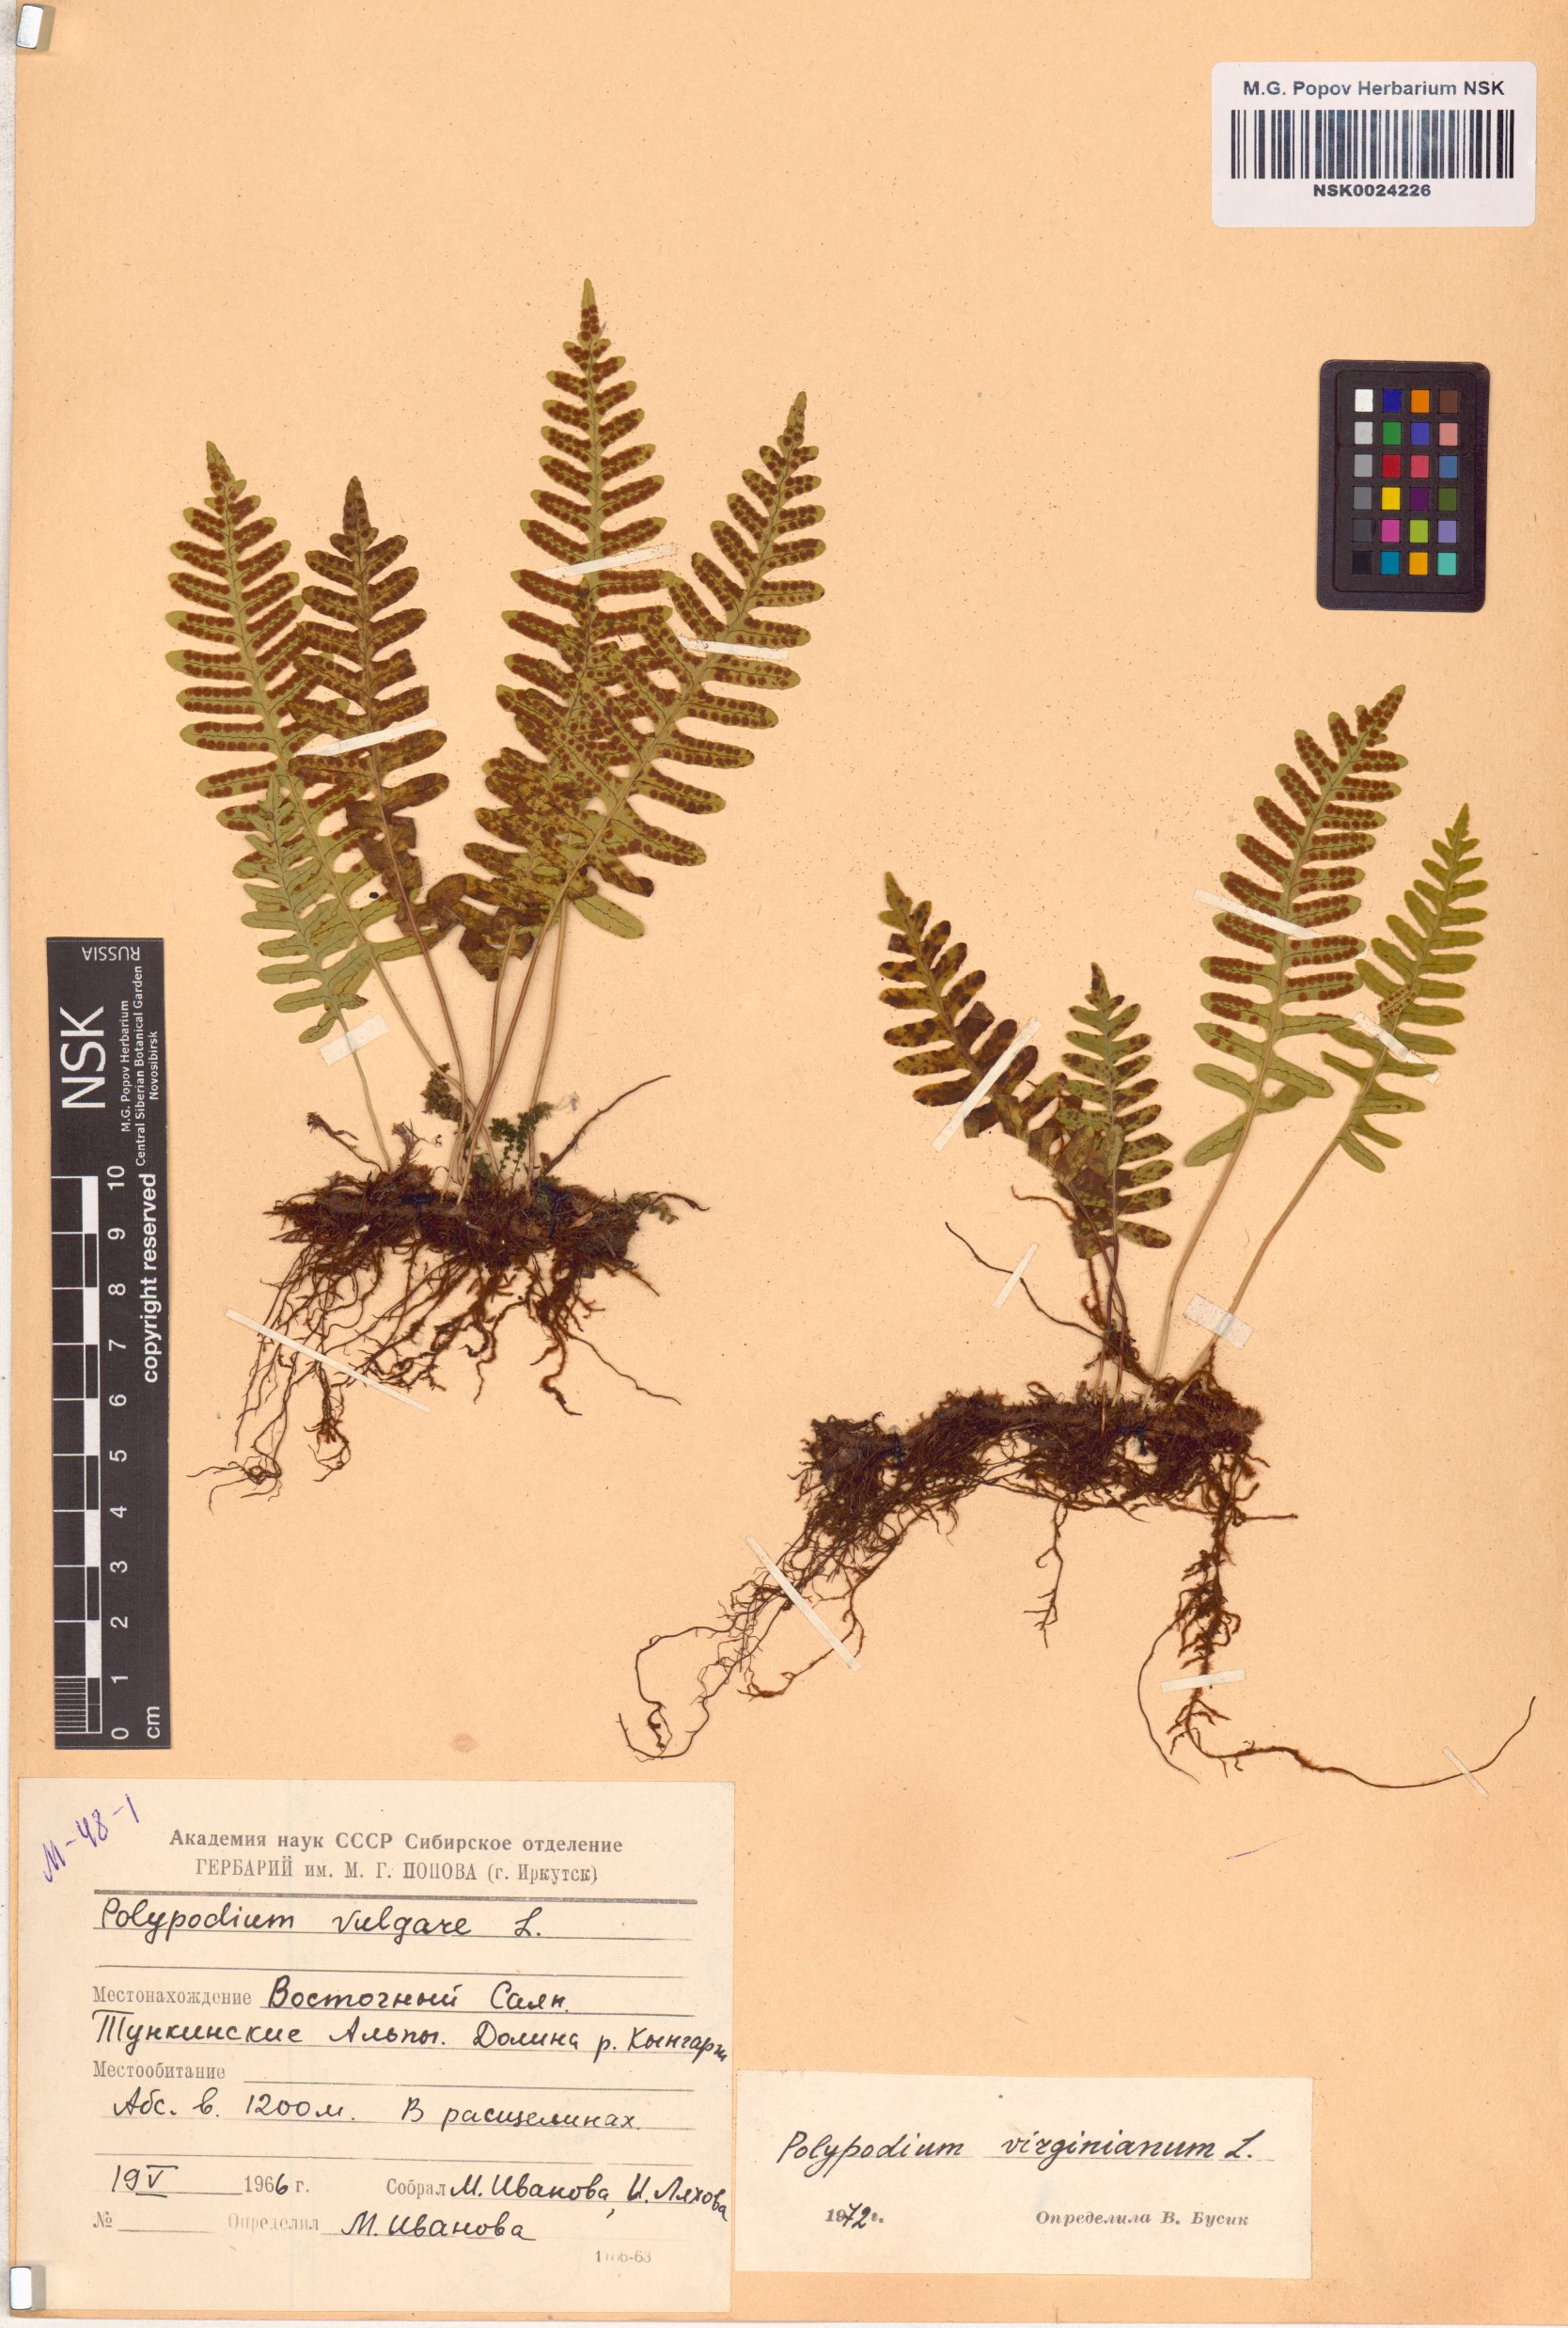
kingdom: Plantae
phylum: Tracheophyta
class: Polypodiopsida
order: Polypodiales
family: Polypodiaceae
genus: Polypodium
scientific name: Polypodium virginianum
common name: American wall fern
